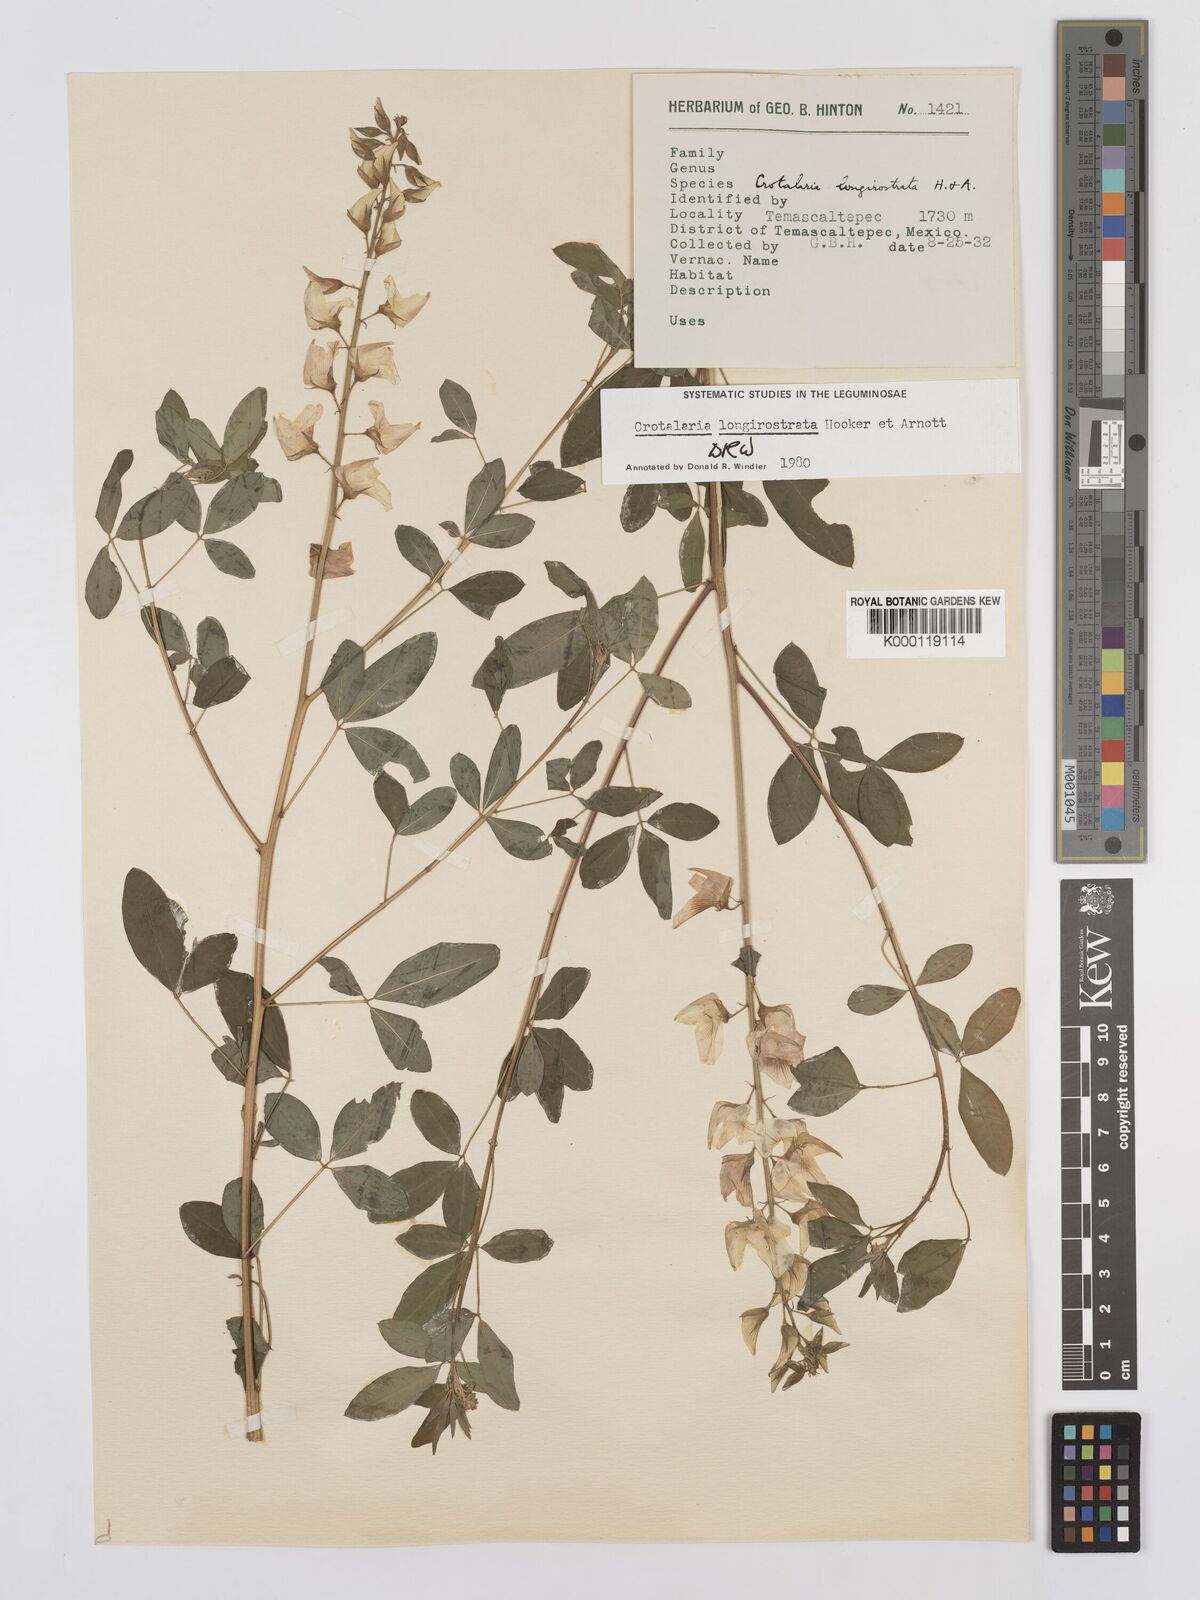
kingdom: Plantae
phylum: Tracheophyta
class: Magnoliopsida
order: Fabales
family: Fabaceae
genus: Crotalaria
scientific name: Crotalaria longirostrata
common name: Longbeak rattlebox
